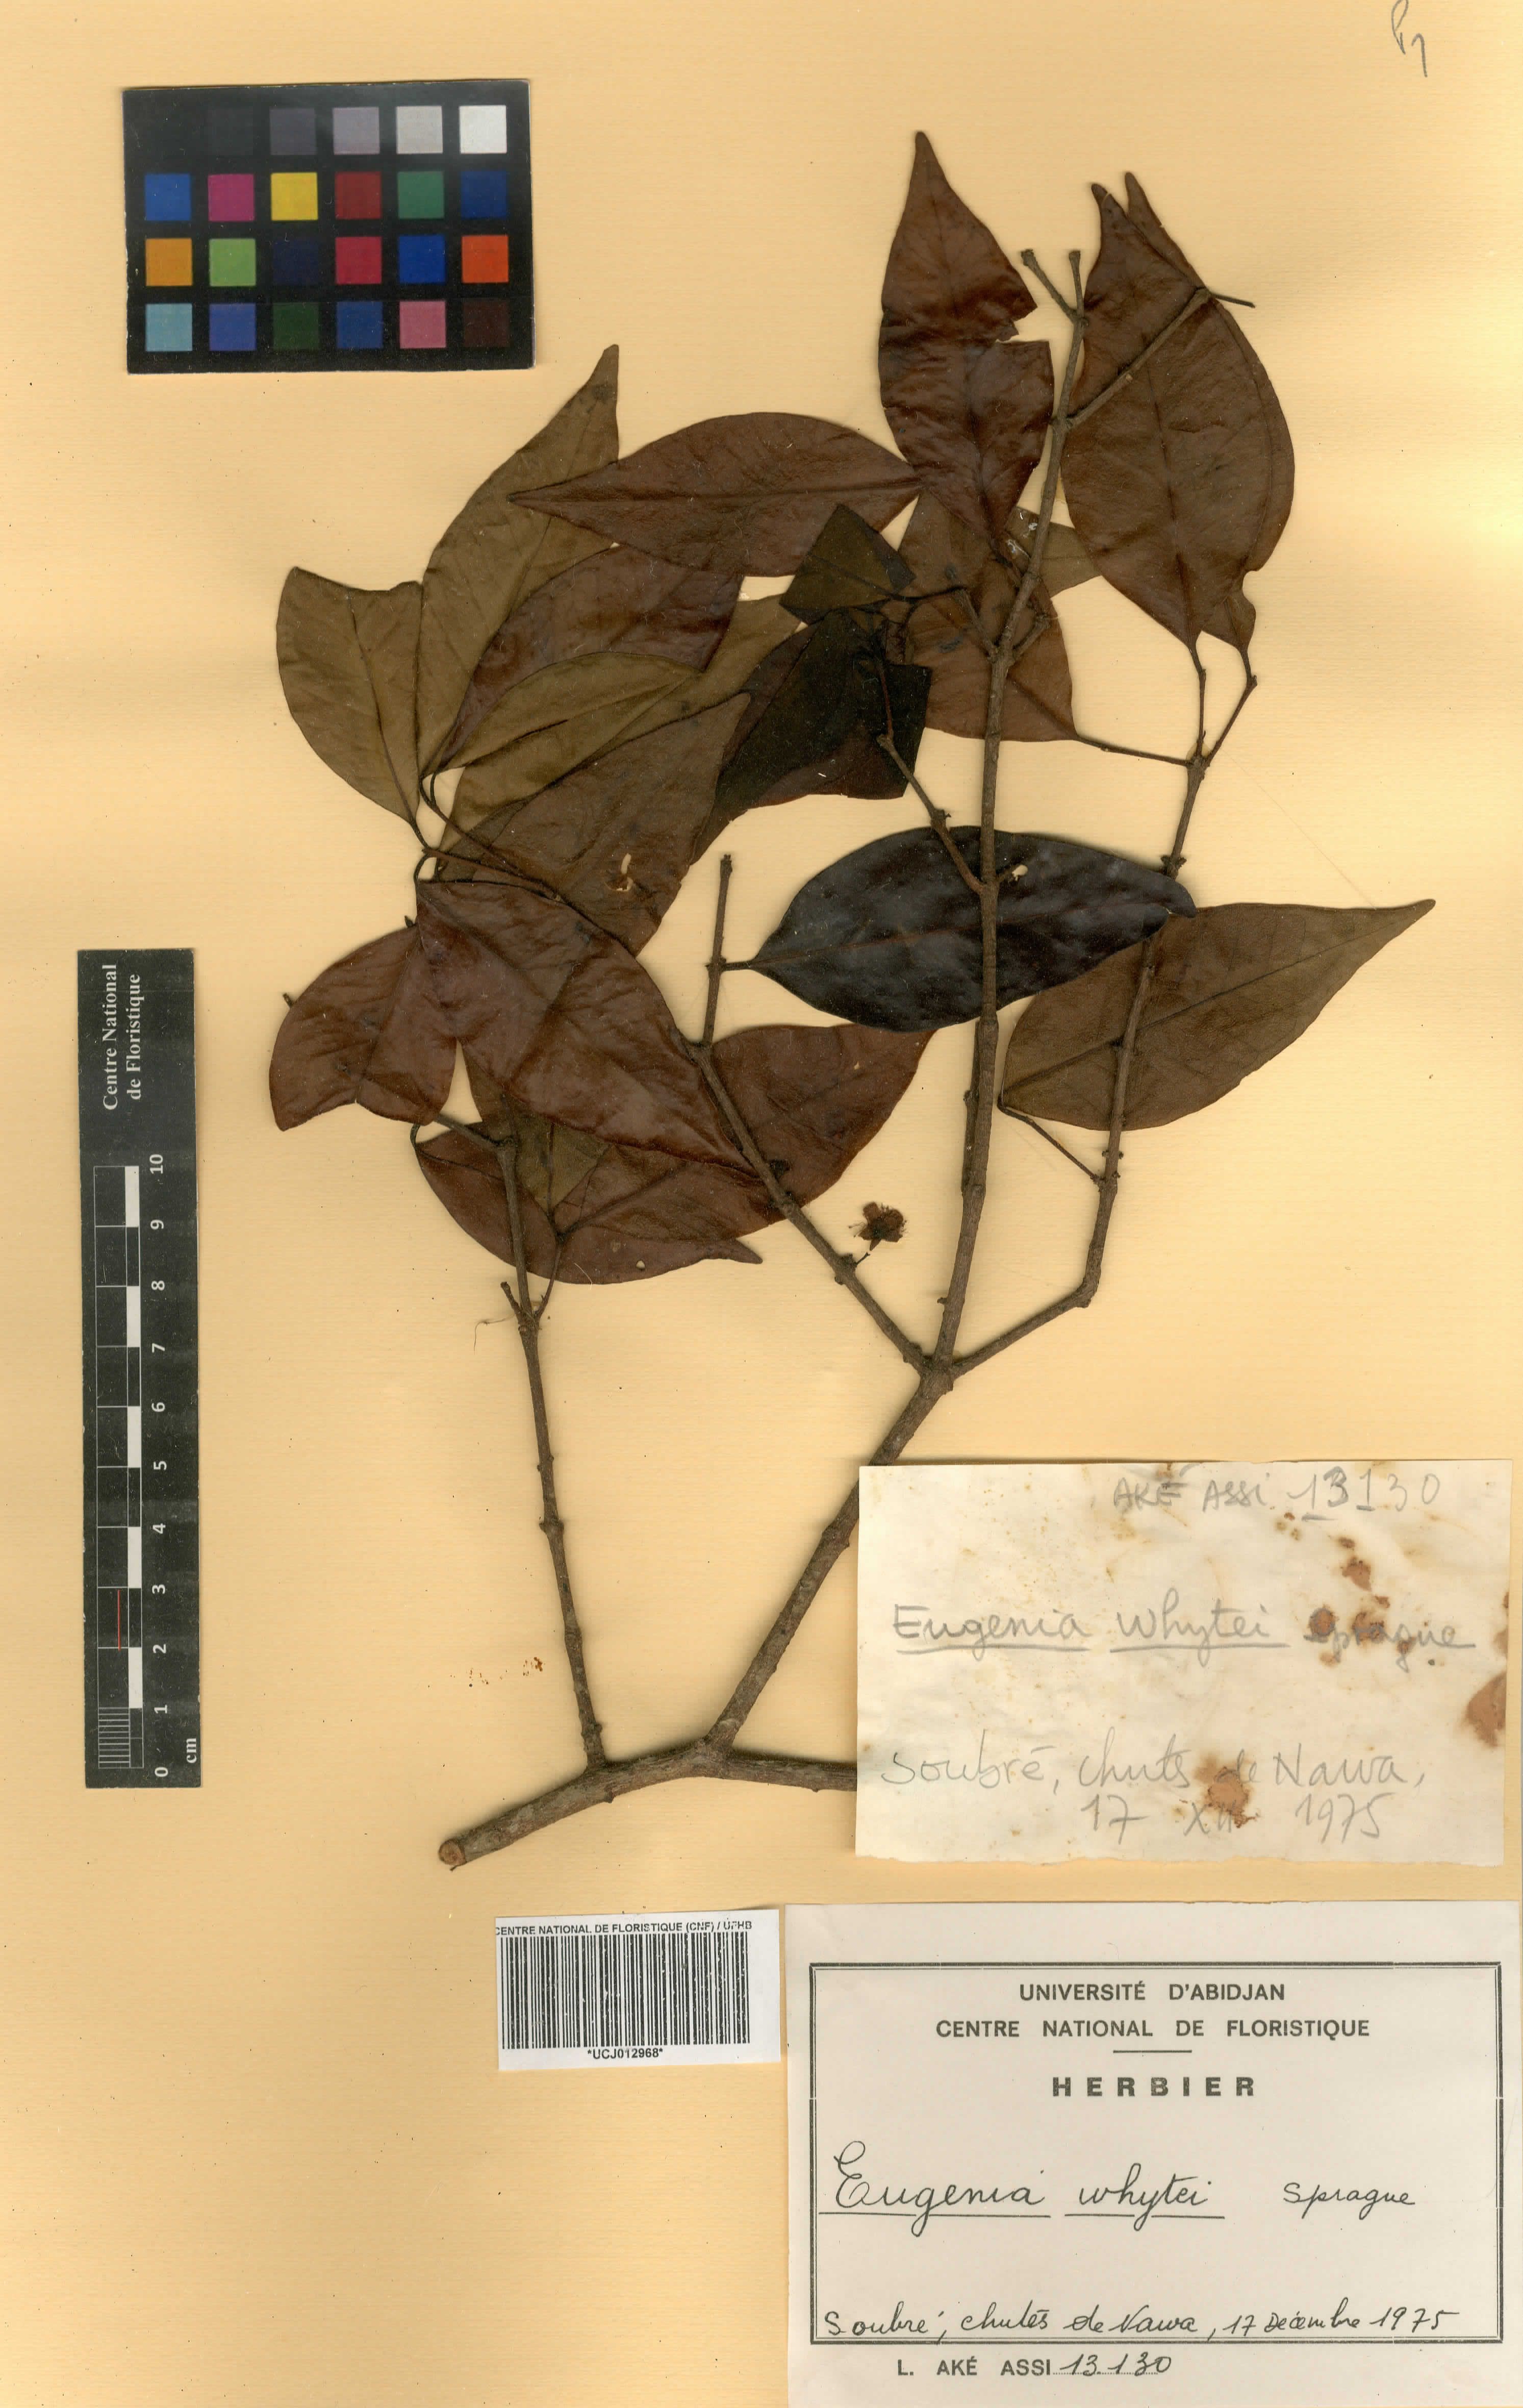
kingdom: Plantae
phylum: Tracheophyta
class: Magnoliopsida
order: Myrtales
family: Myrtaceae
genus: Eugenia
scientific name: Eugenia whytei
